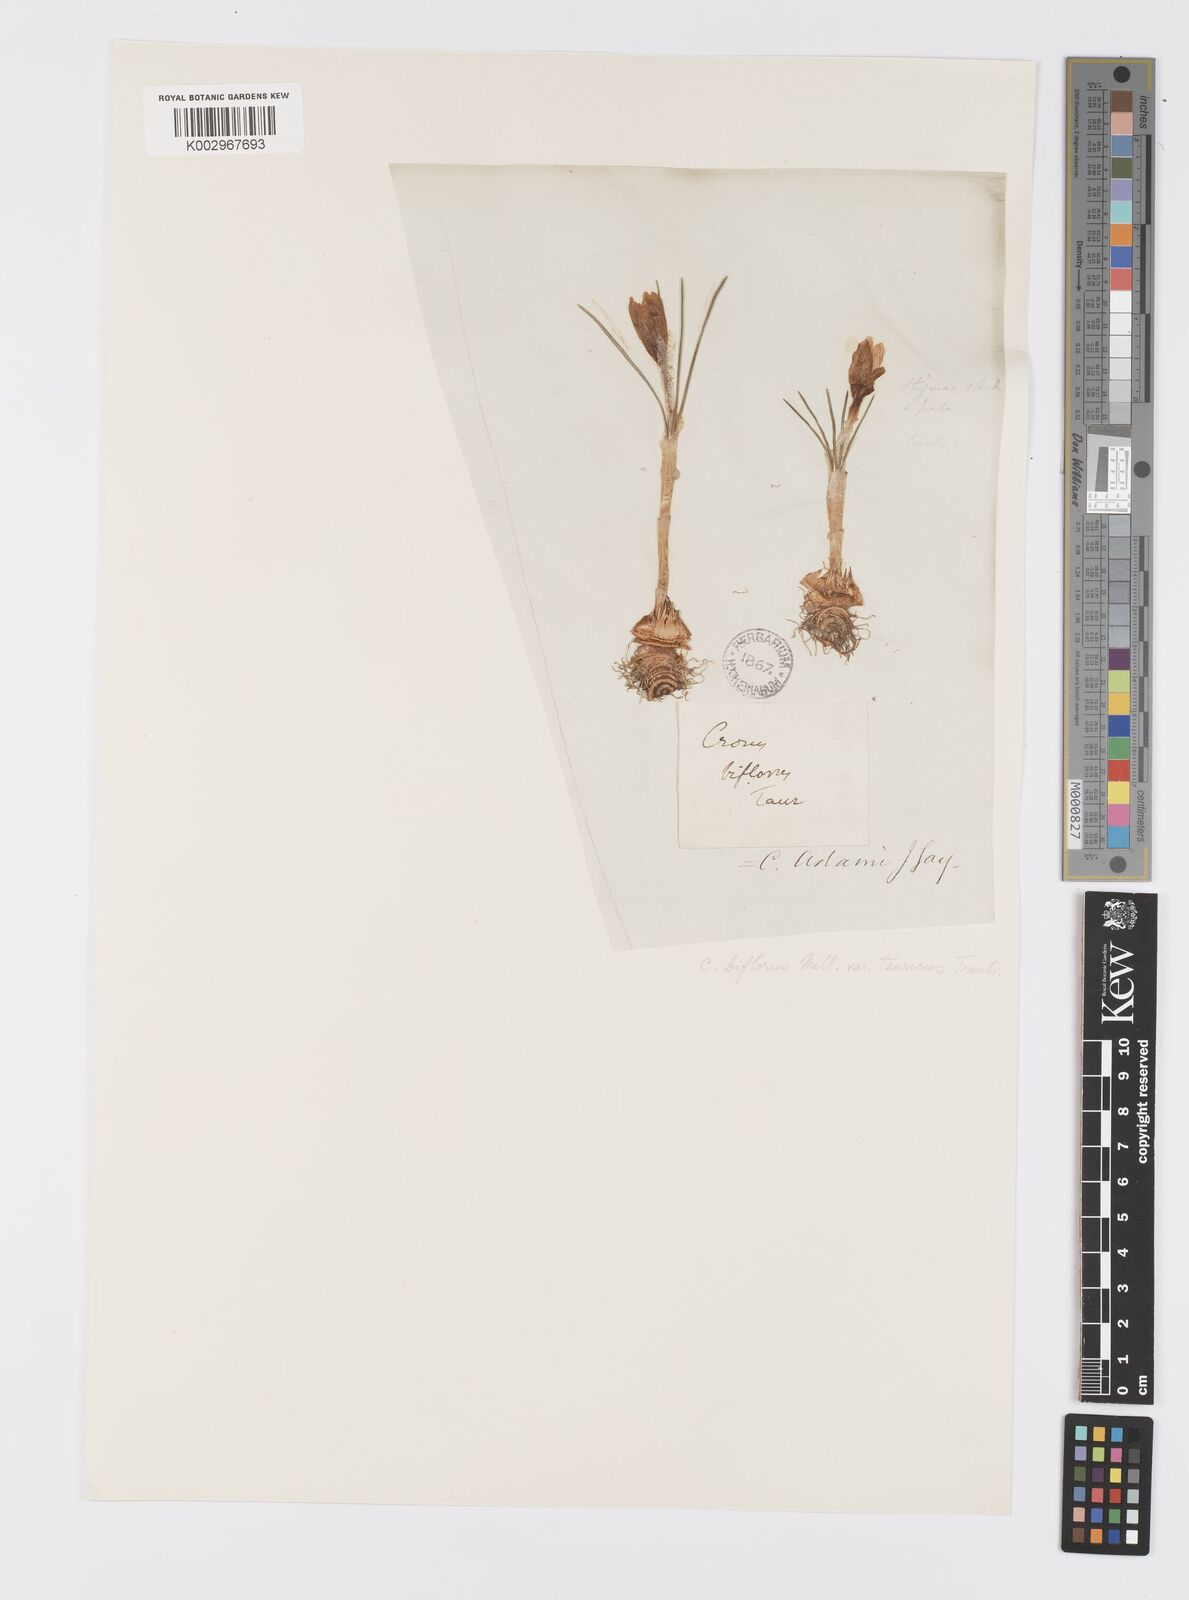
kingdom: Plantae
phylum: Tracheophyta
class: Liliopsida
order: Asparagales
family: Iridaceae
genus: Crocus
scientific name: Crocus biflorus
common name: Silvery crocus
